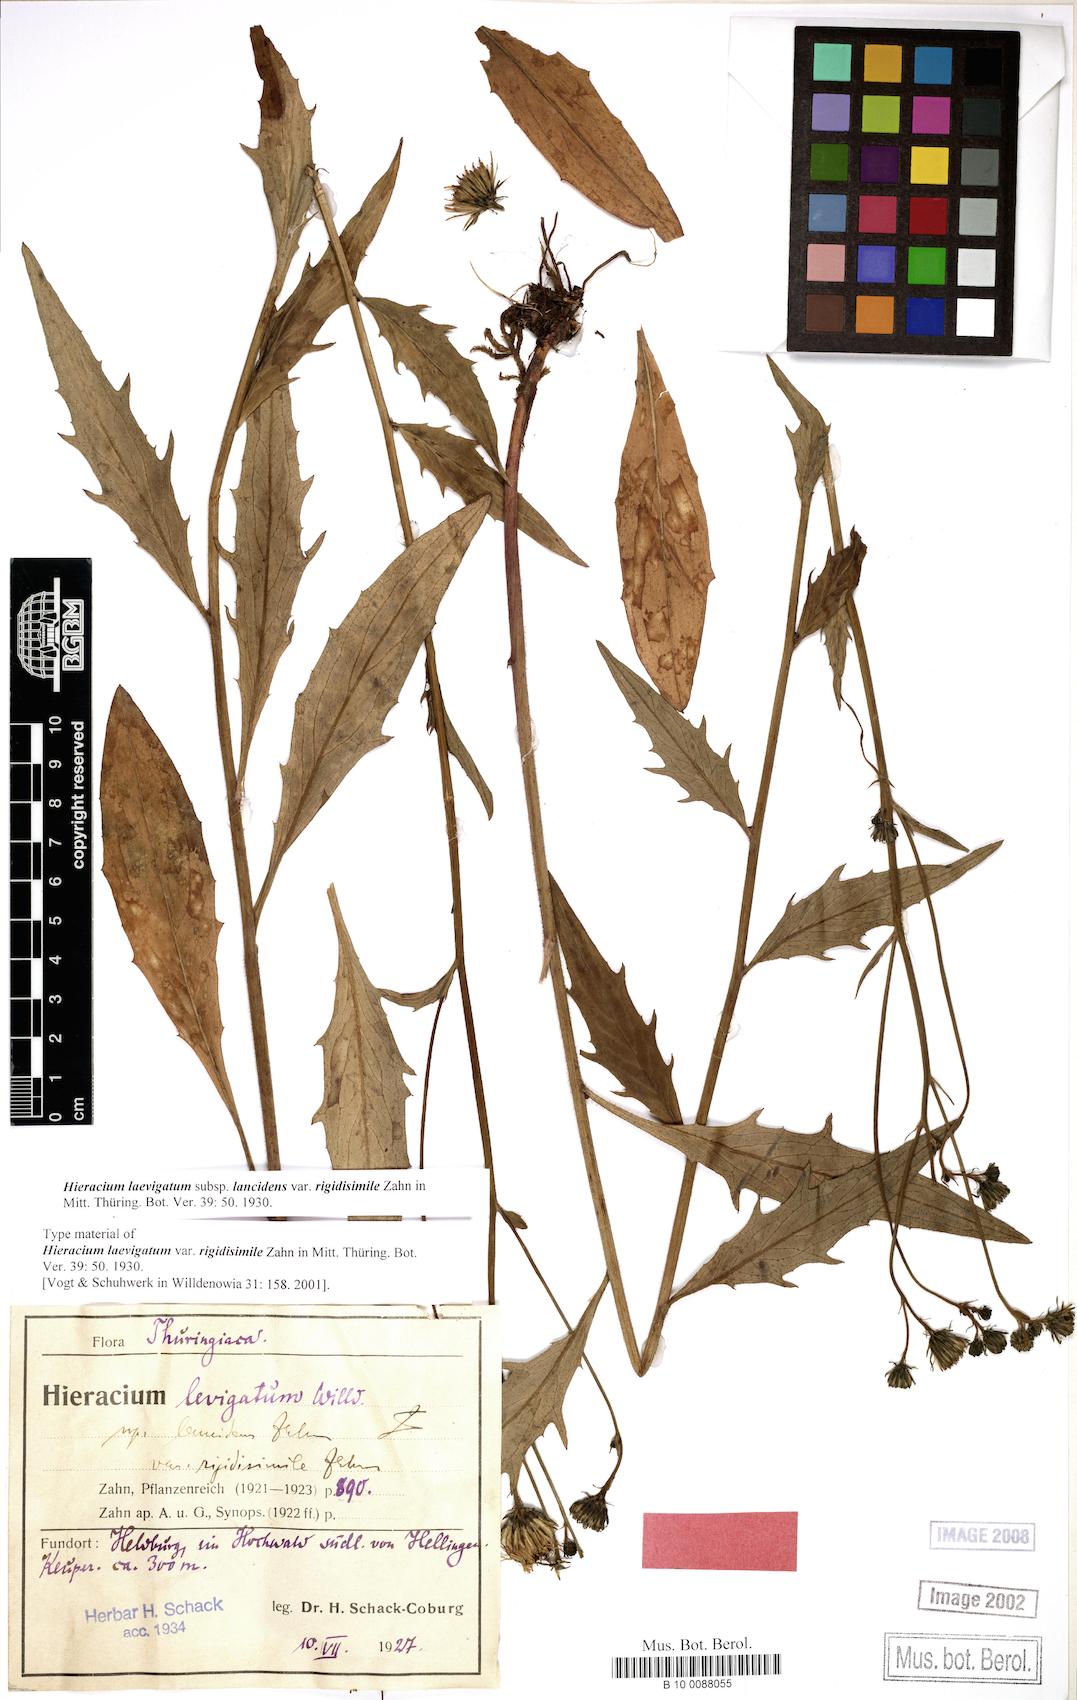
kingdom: Plantae
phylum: Tracheophyta
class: Magnoliopsida
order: Asterales
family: Asteraceae
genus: Hieracium
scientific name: Hieracium laevigatum
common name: Smooth hawkweed
